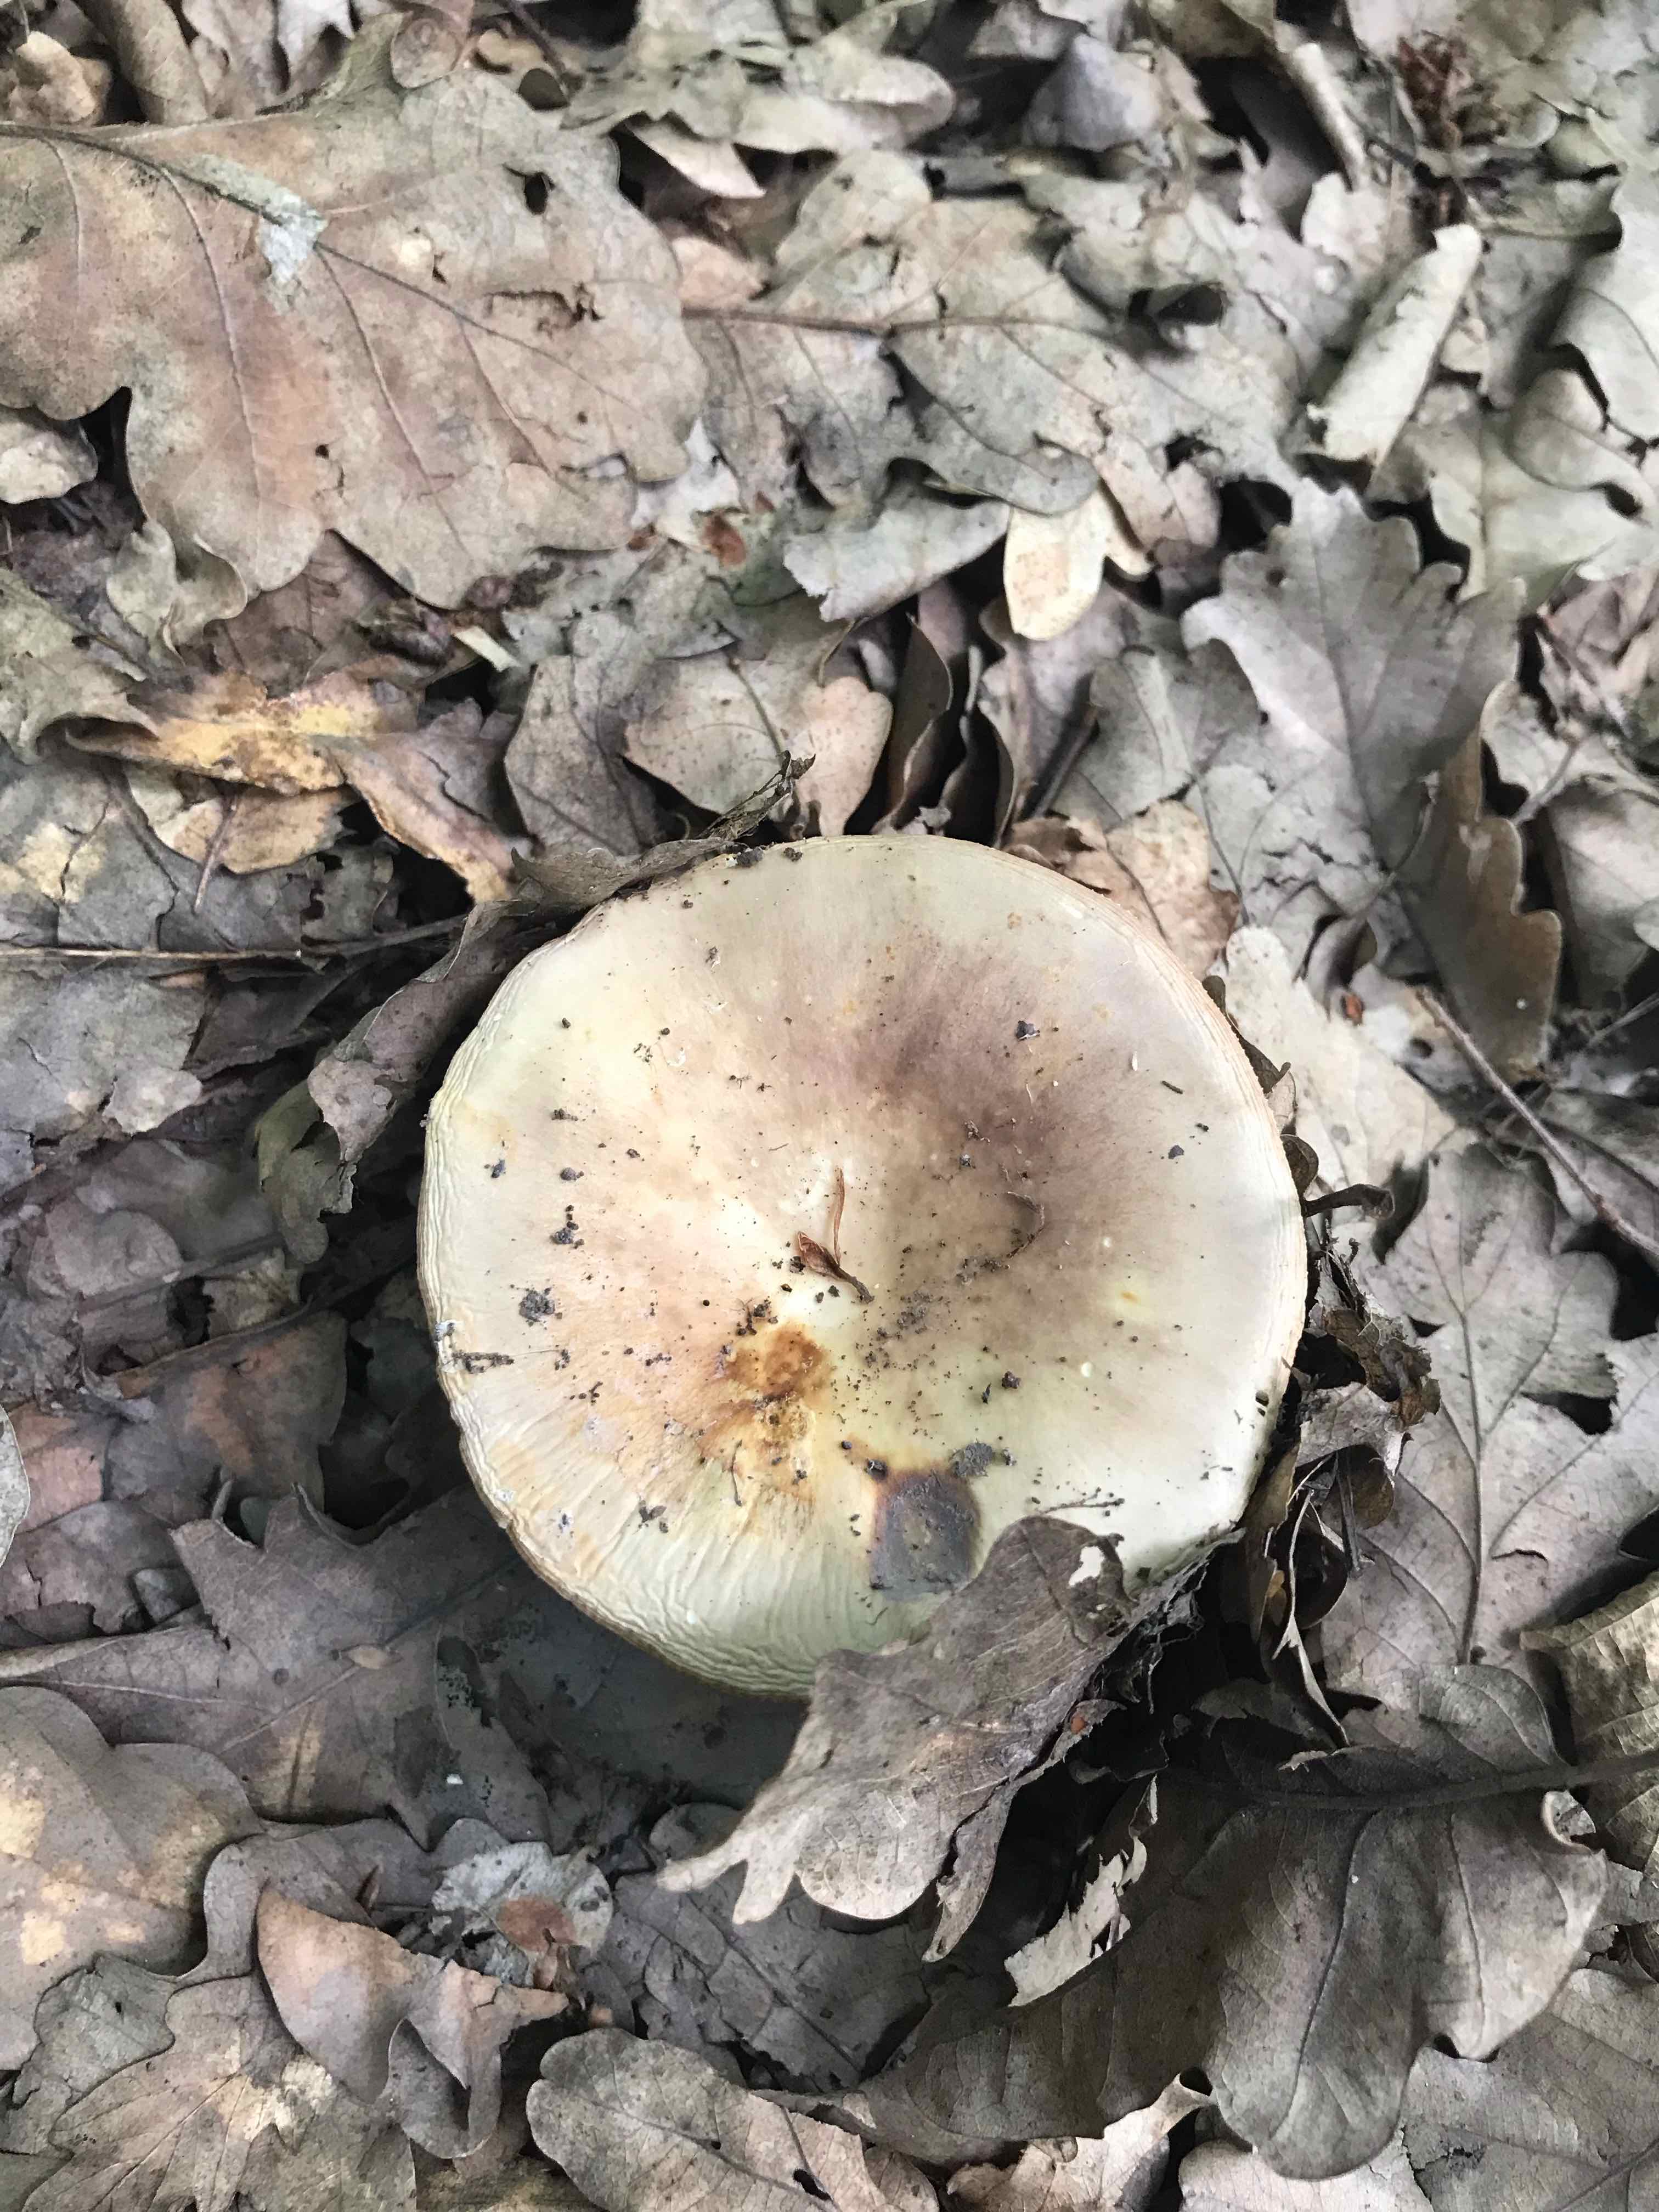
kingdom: Fungi
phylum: Basidiomycota
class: Agaricomycetes
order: Russulales
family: Russulaceae
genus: Russula
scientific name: Russula
